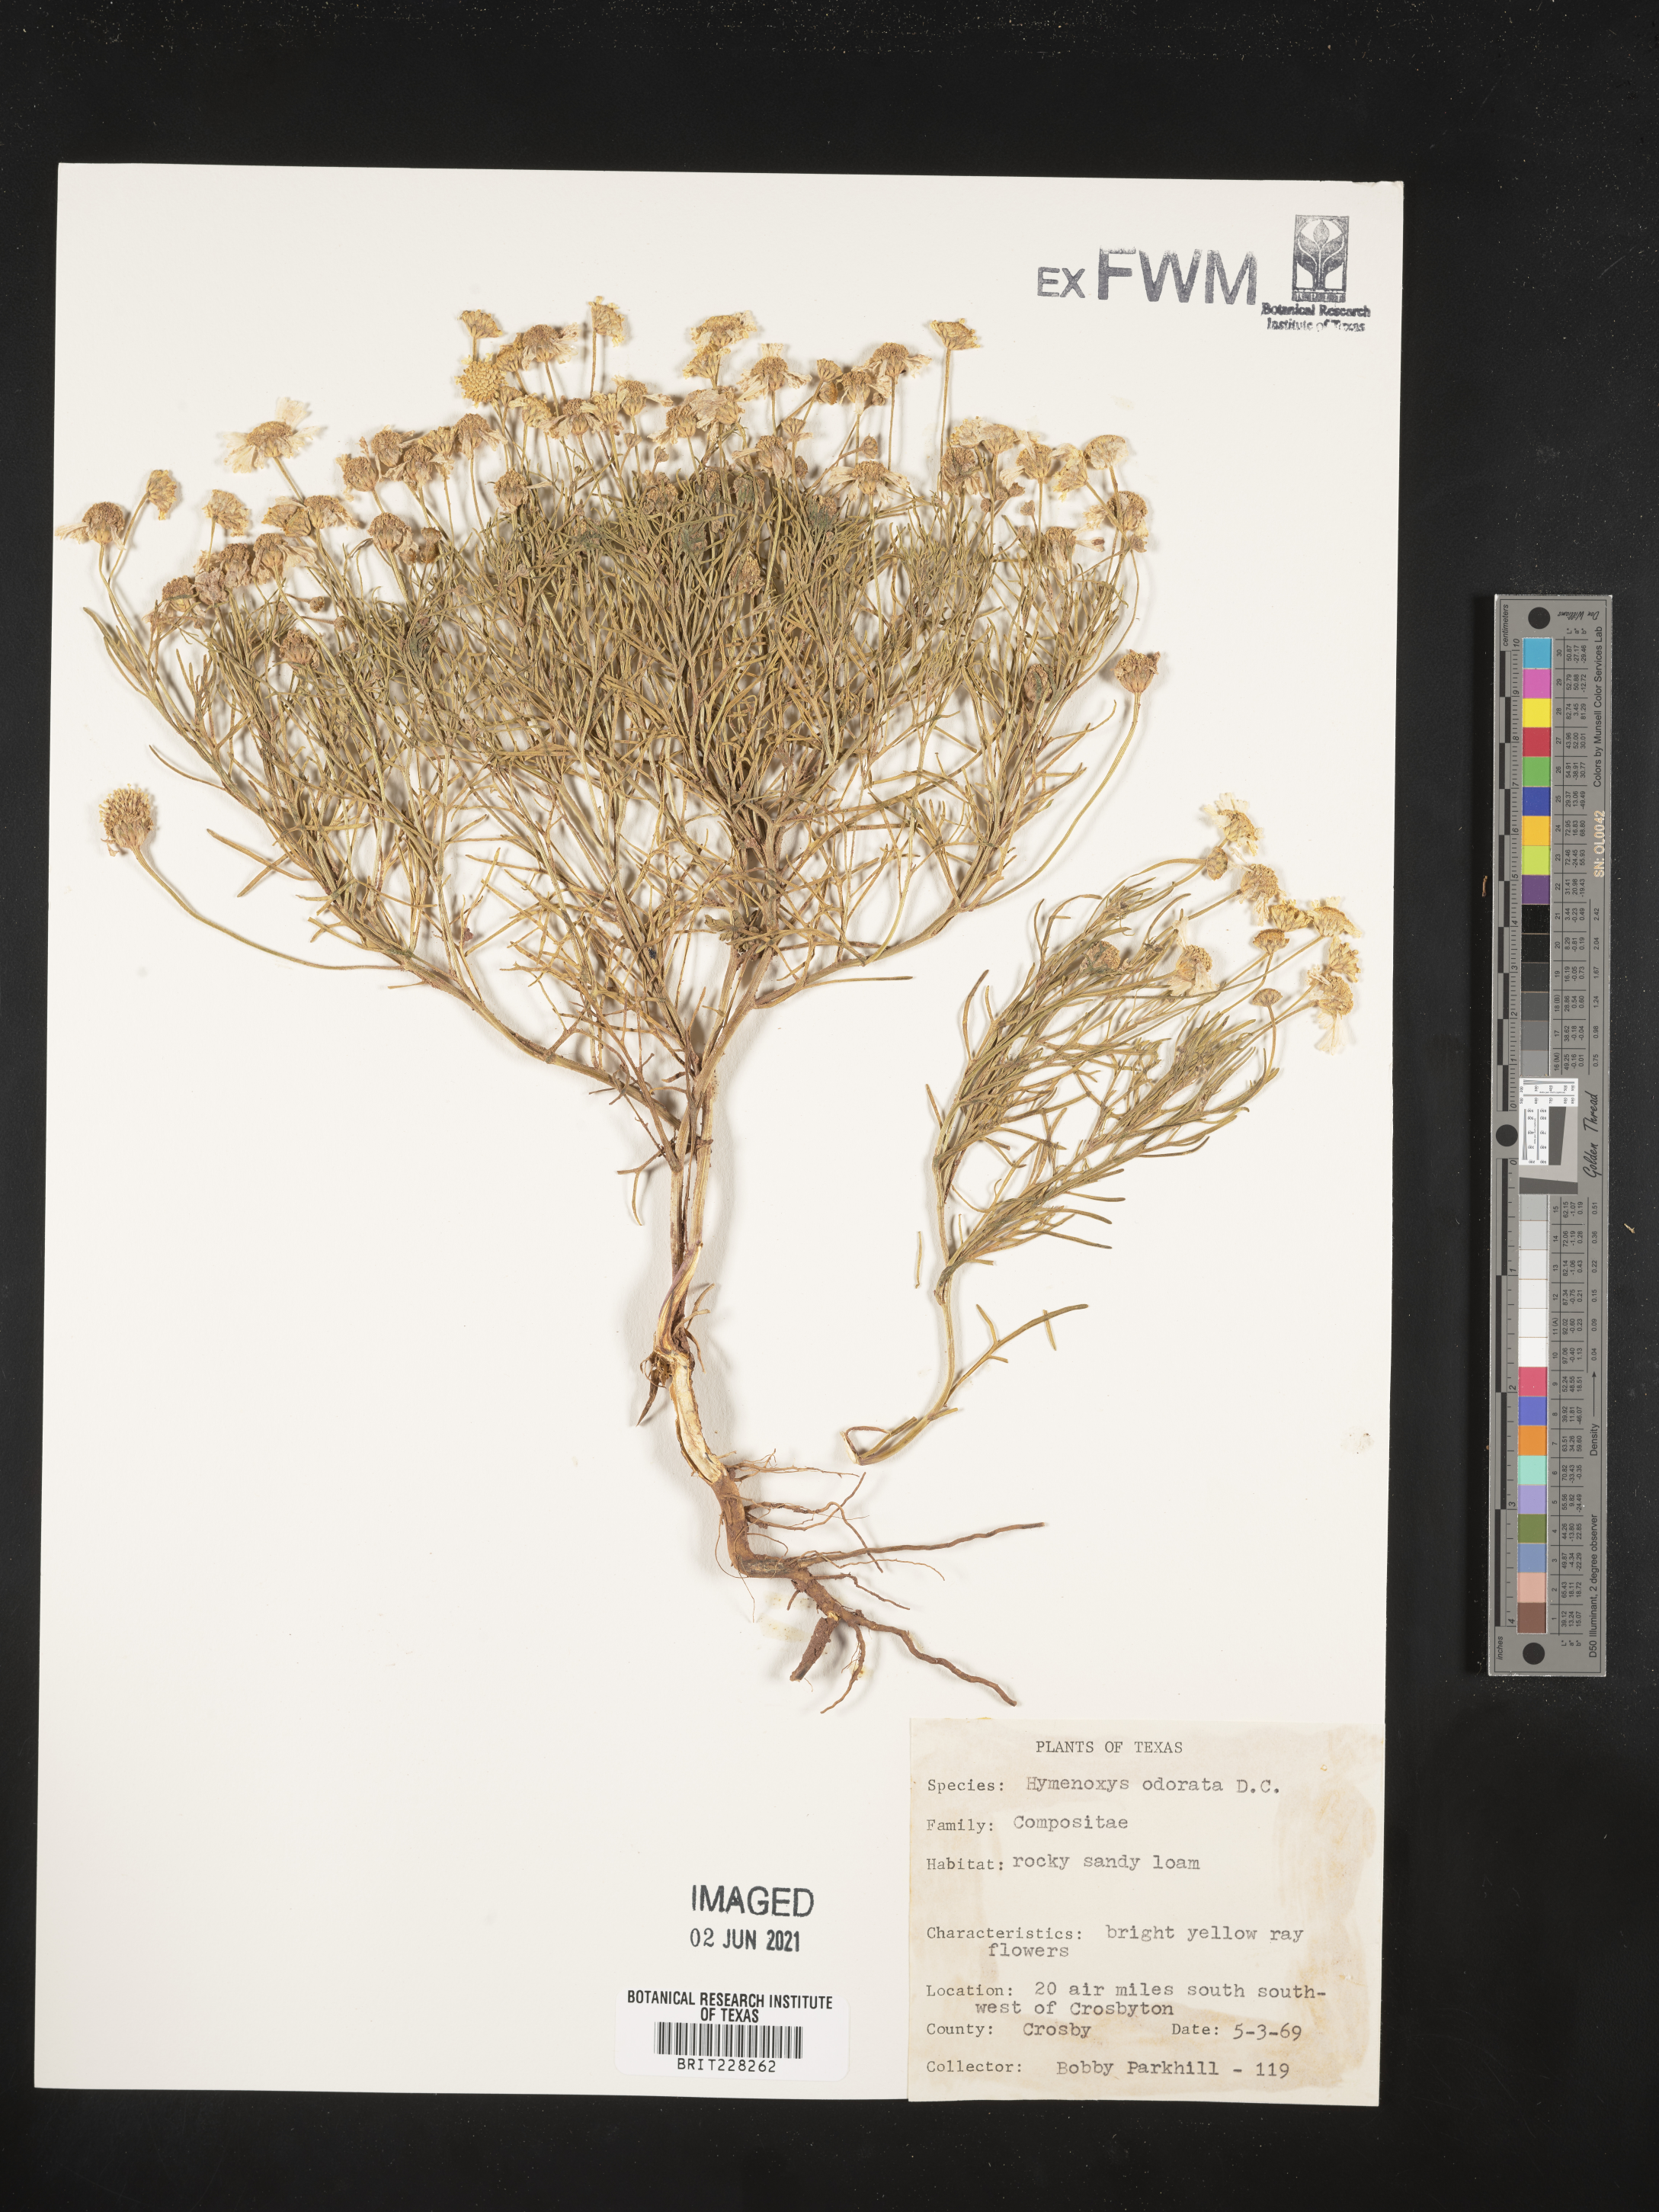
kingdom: Plantae
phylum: Tracheophyta
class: Magnoliopsida
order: Asterales
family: Asteraceae
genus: Hymenoxys
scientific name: Hymenoxys odorata
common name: Bitter rubberweed
